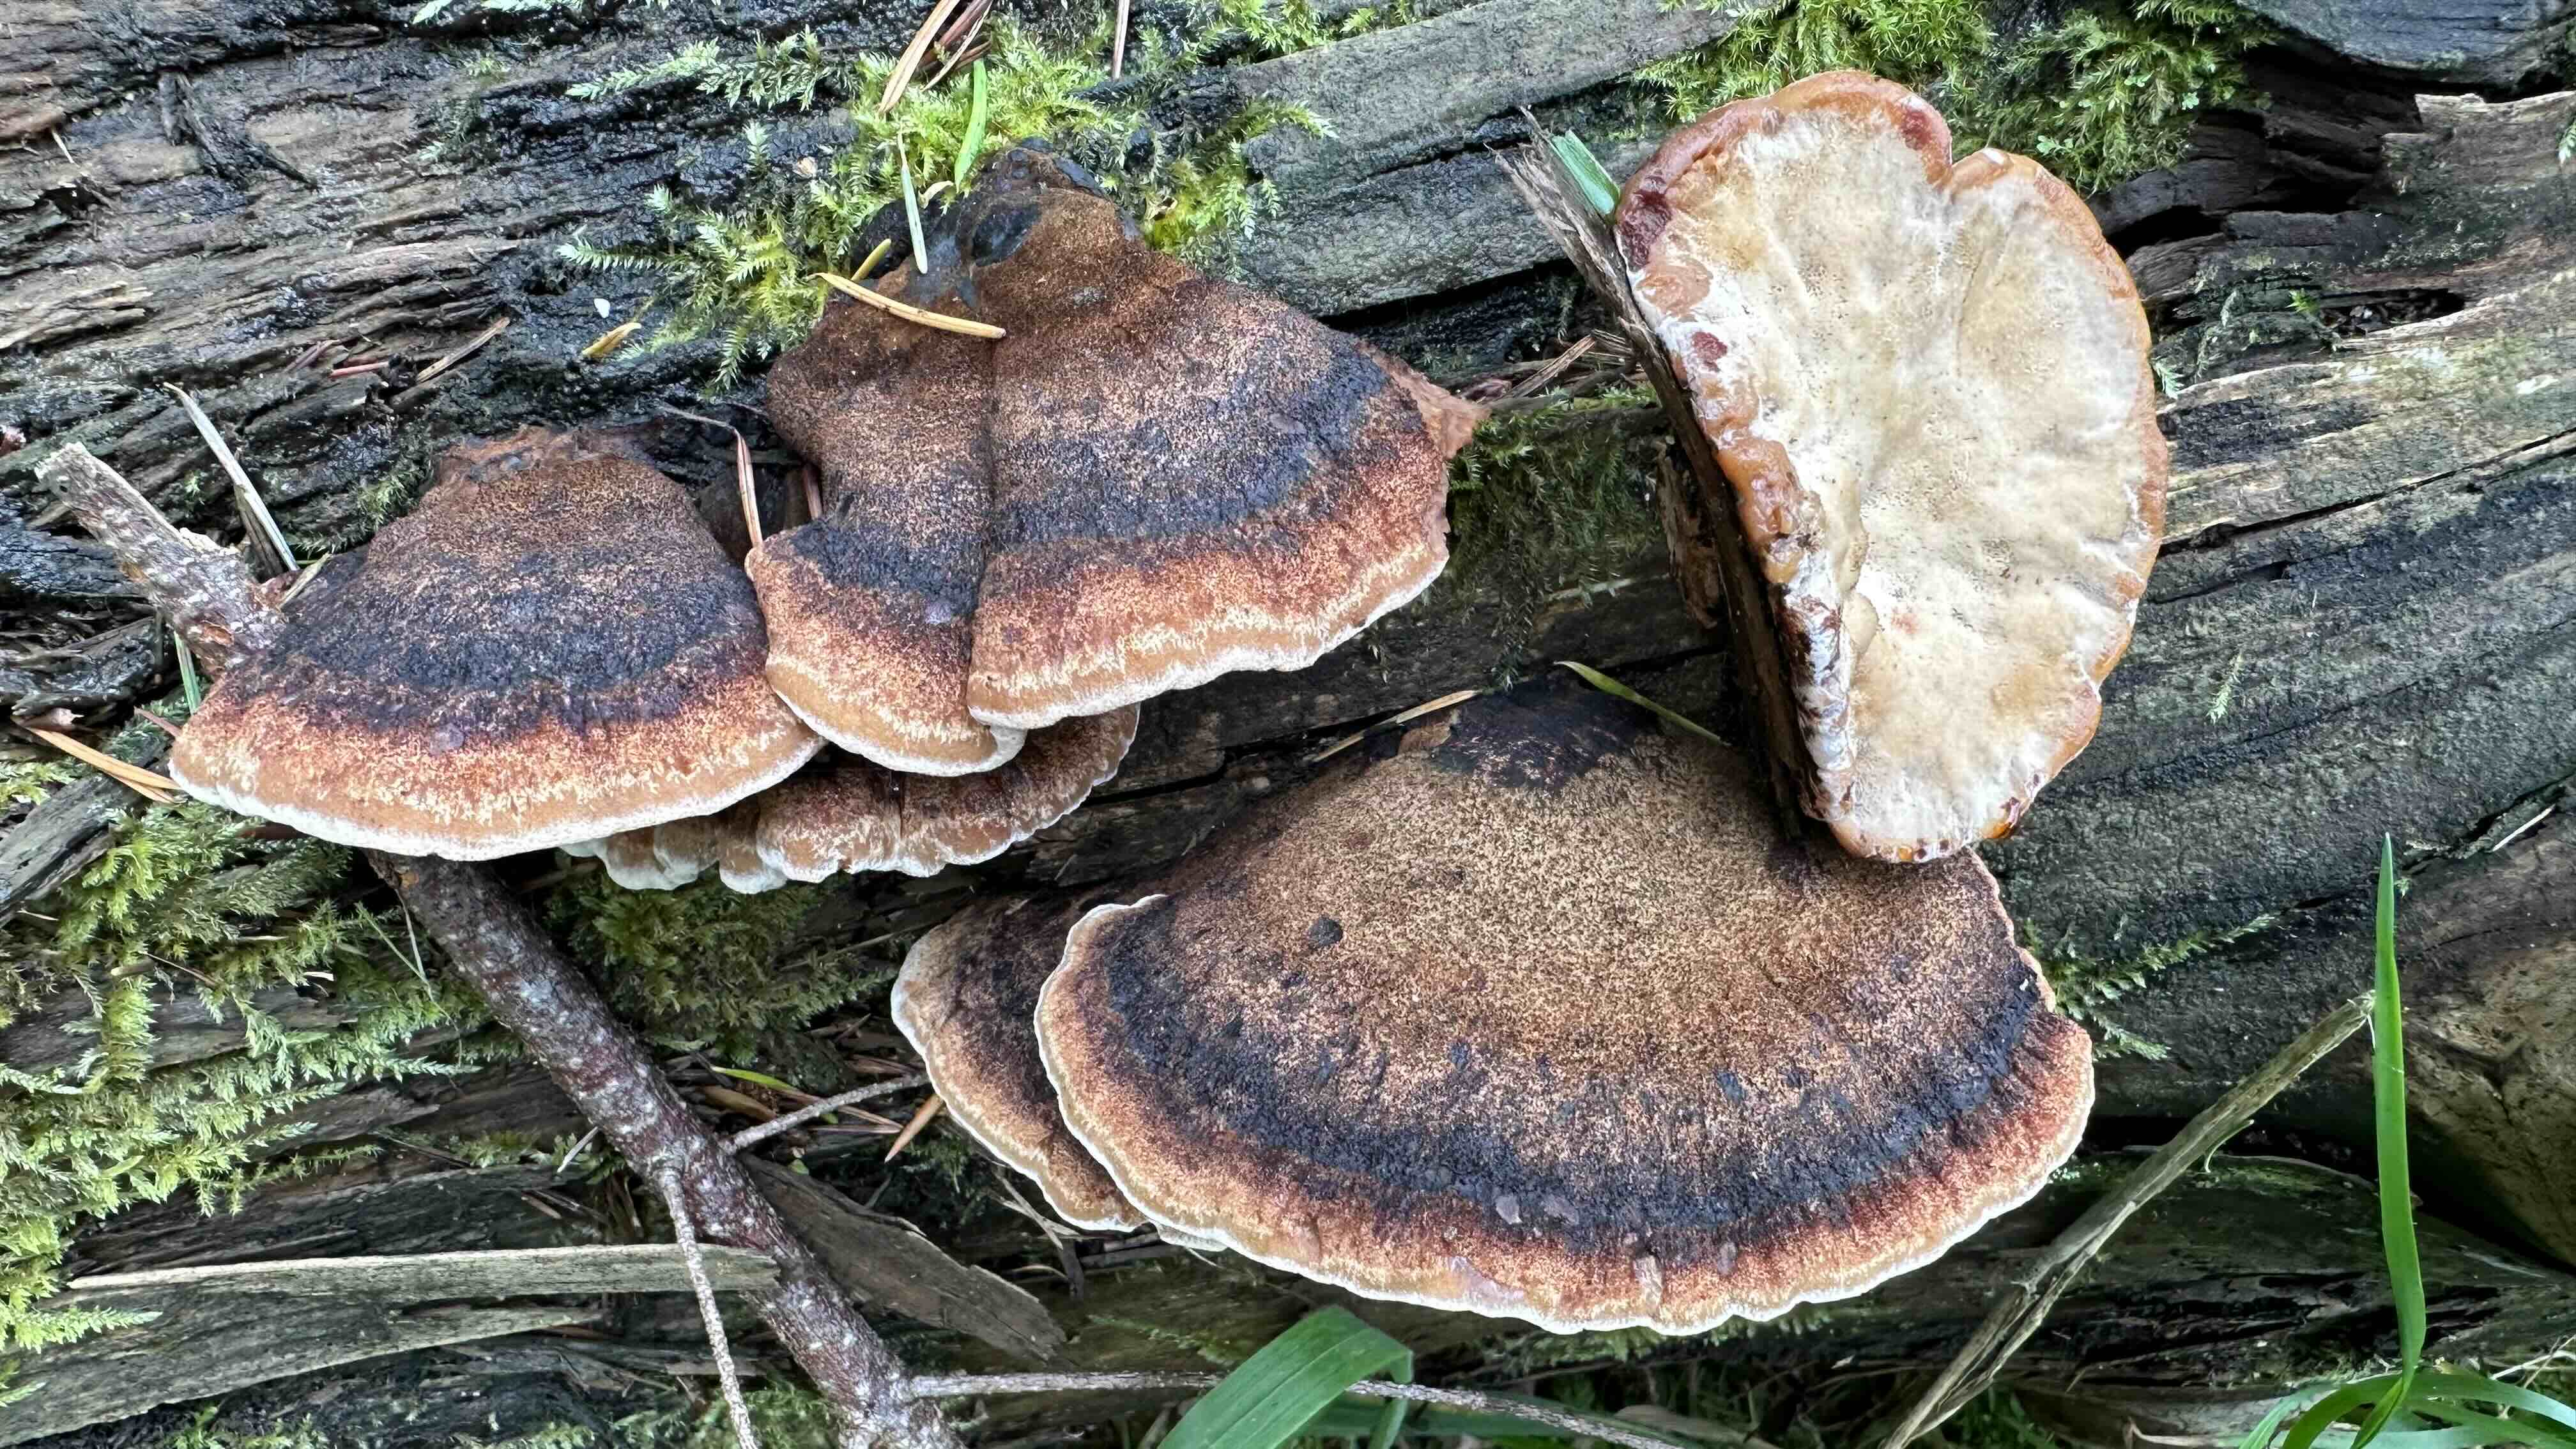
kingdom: Fungi
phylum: Basidiomycota
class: Agaricomycetes
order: Polyporales
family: Ischnodermataceae
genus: Ischnoderma
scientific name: Ischnoderma benzoinum
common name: gran-tjæreporesvamp
